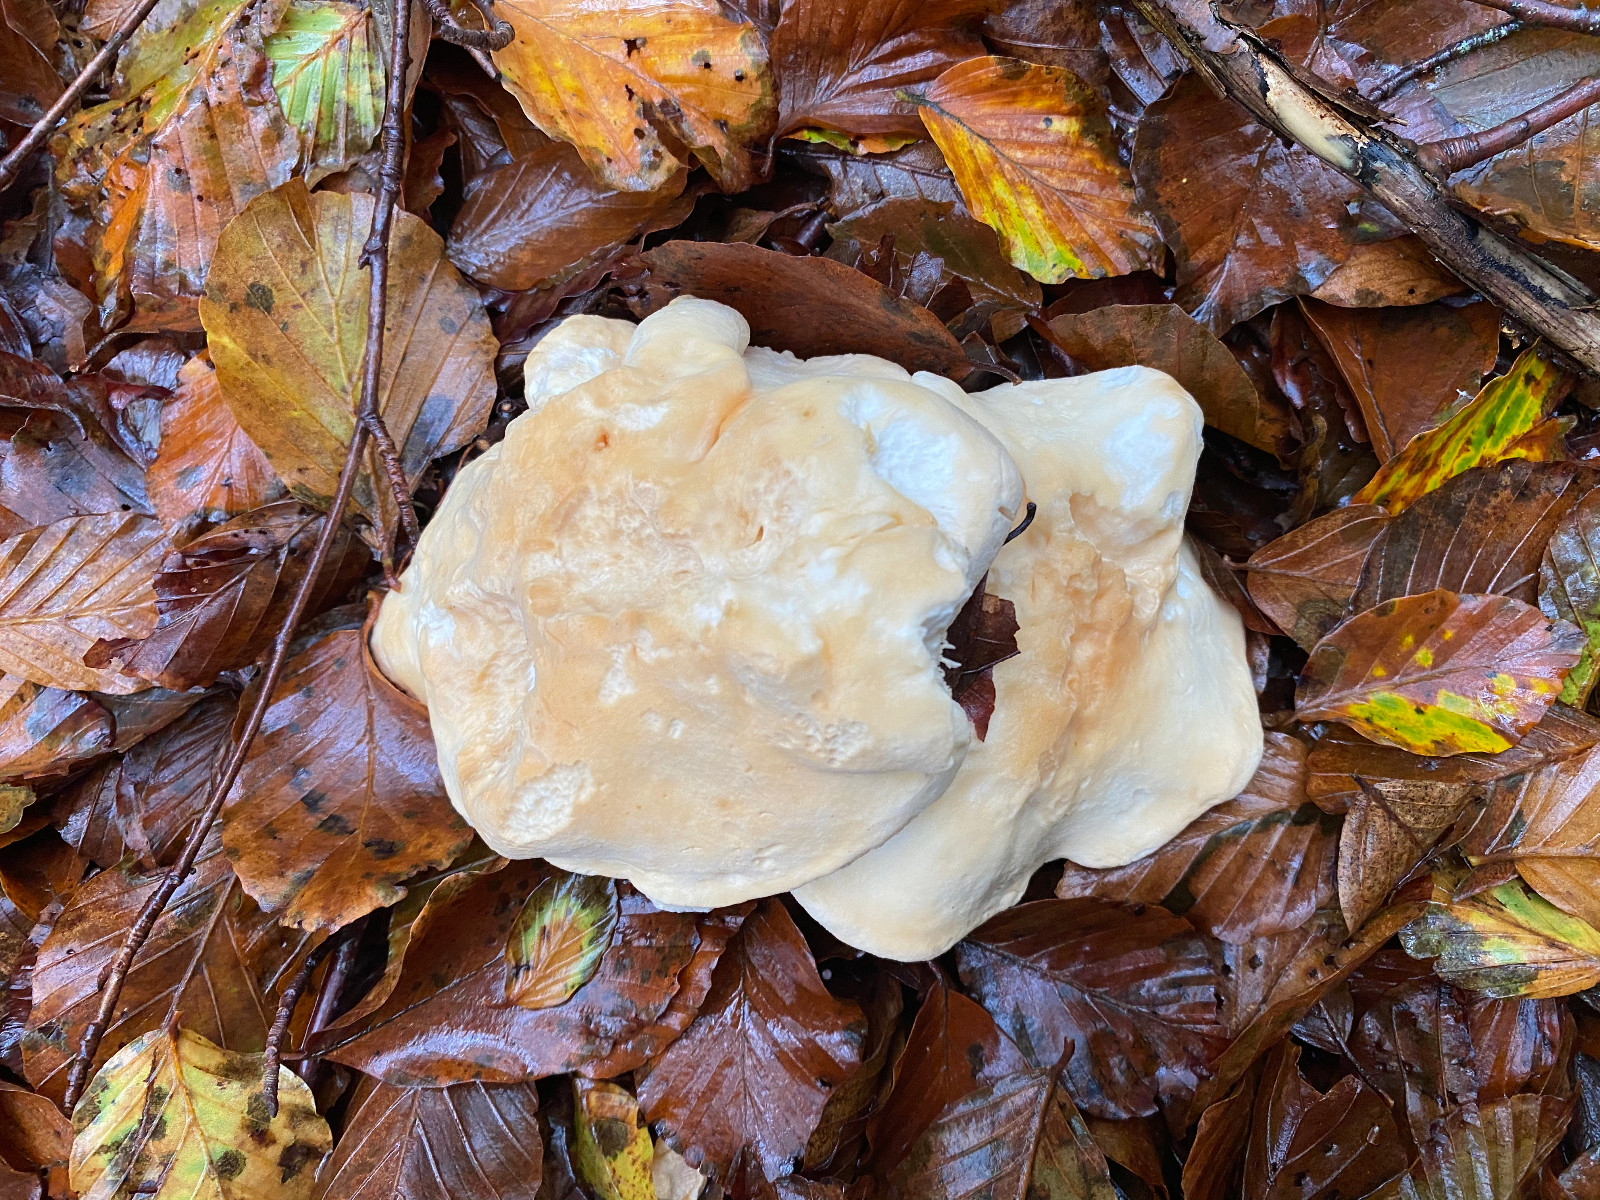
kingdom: Fungi
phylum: Basidiomycota
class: Agaricomycetes
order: Cantharellales
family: Hydnaceae
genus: Hydnum
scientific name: Hydnum repandum
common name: almindelig pigsvamp
